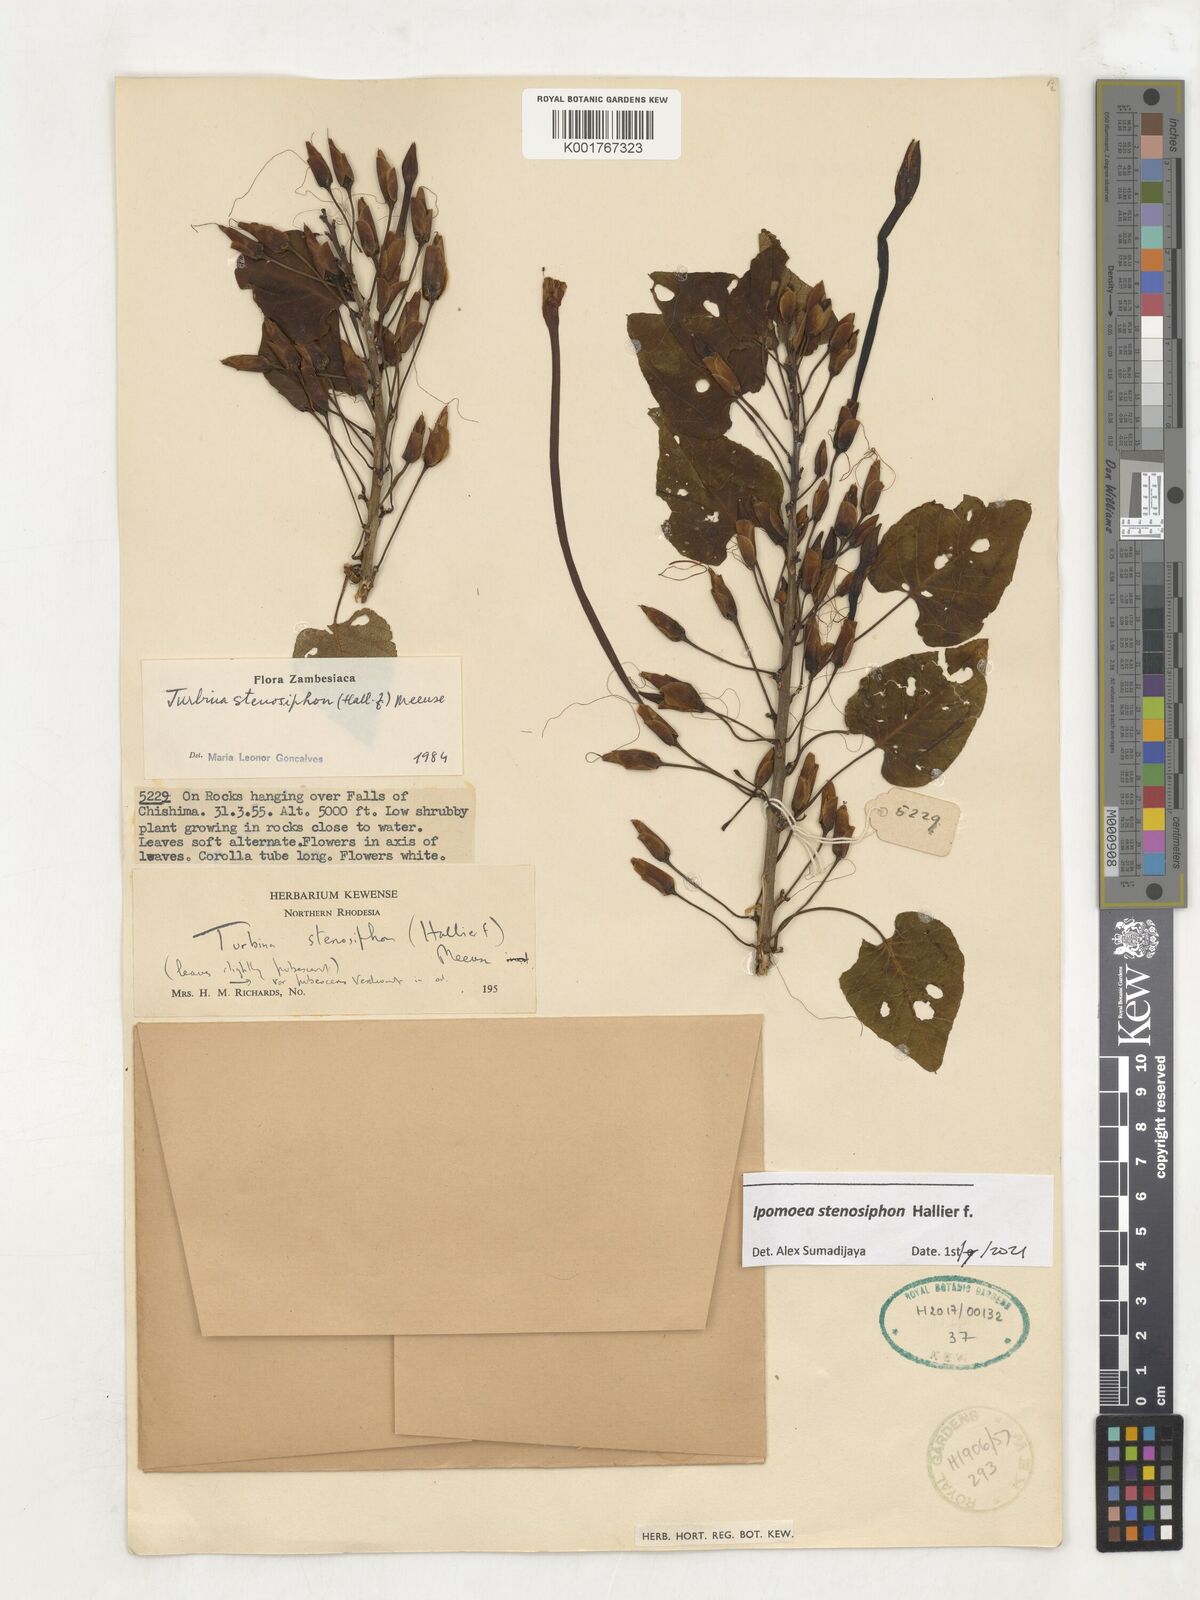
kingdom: Plantae
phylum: Tracheophyta
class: Magnoliopsida
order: Solanales
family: Convolvulaceae
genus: Ipomoea
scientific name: Ipomoea stenosiphon
